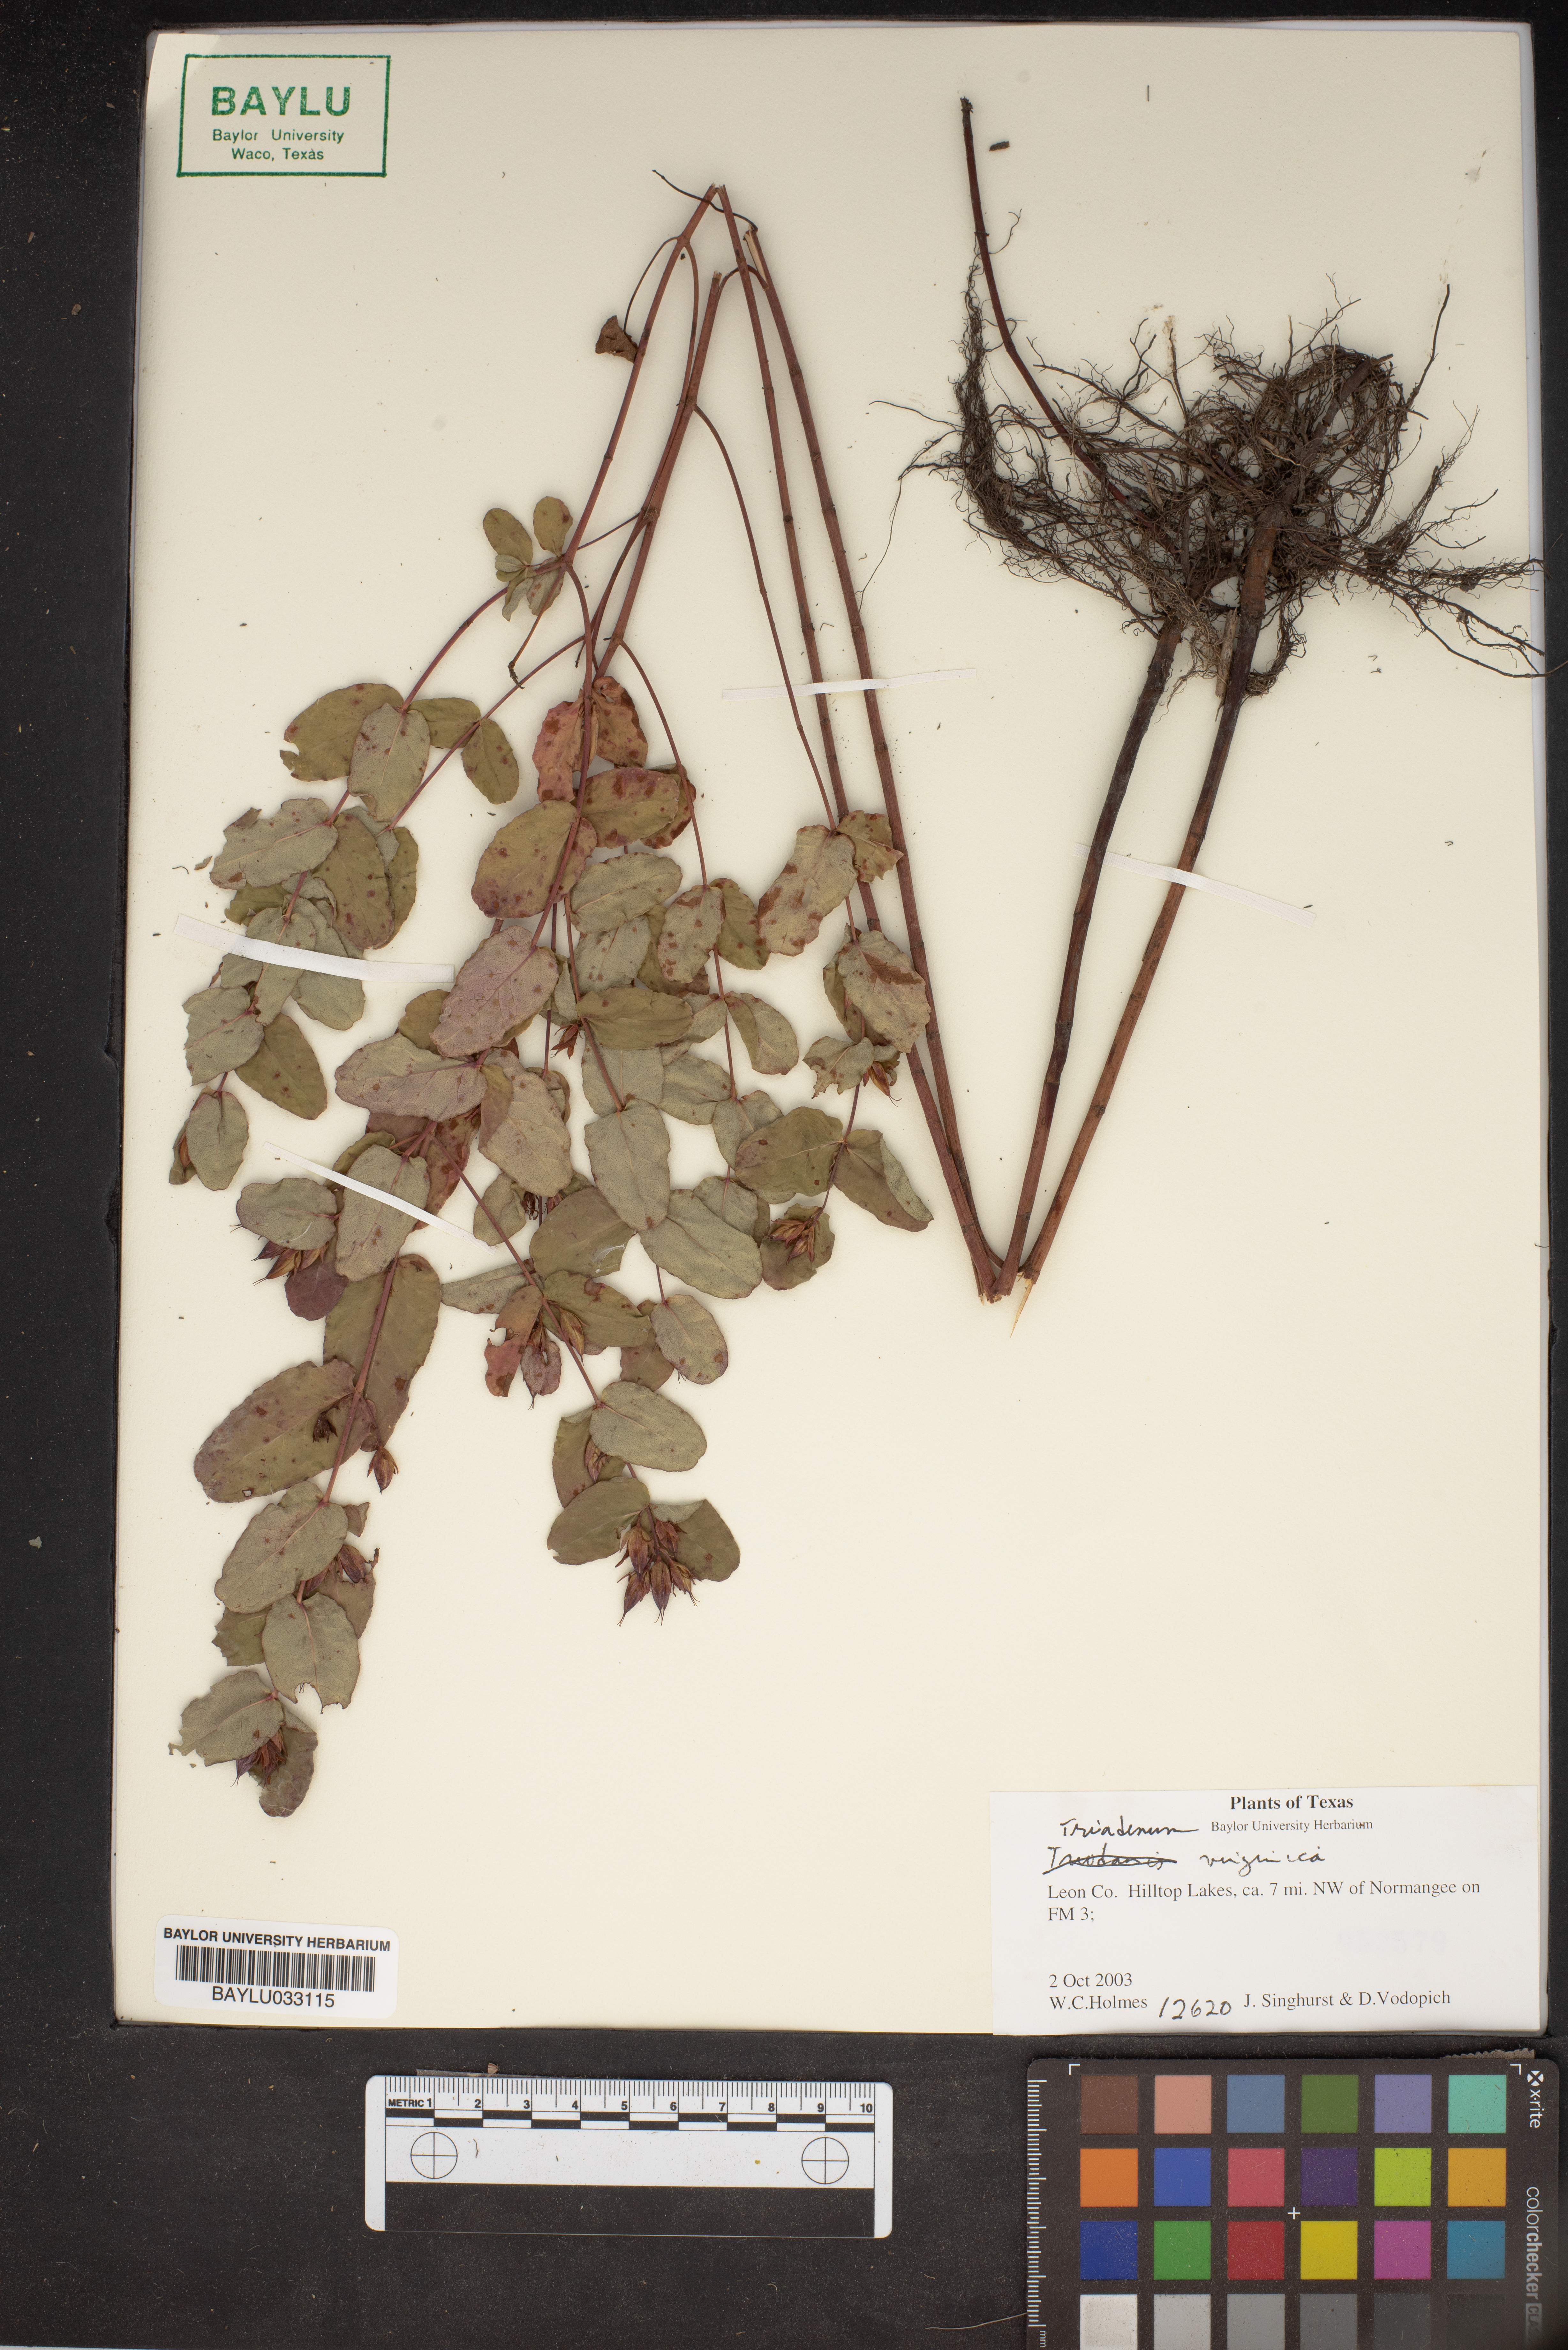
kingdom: Plantae
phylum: Tracheophyta
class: Magnoliopsida
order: Malpighiales
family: Hypericaceae
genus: Triadenum
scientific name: Triadenum virginicum
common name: Marsh st. john's-wort
